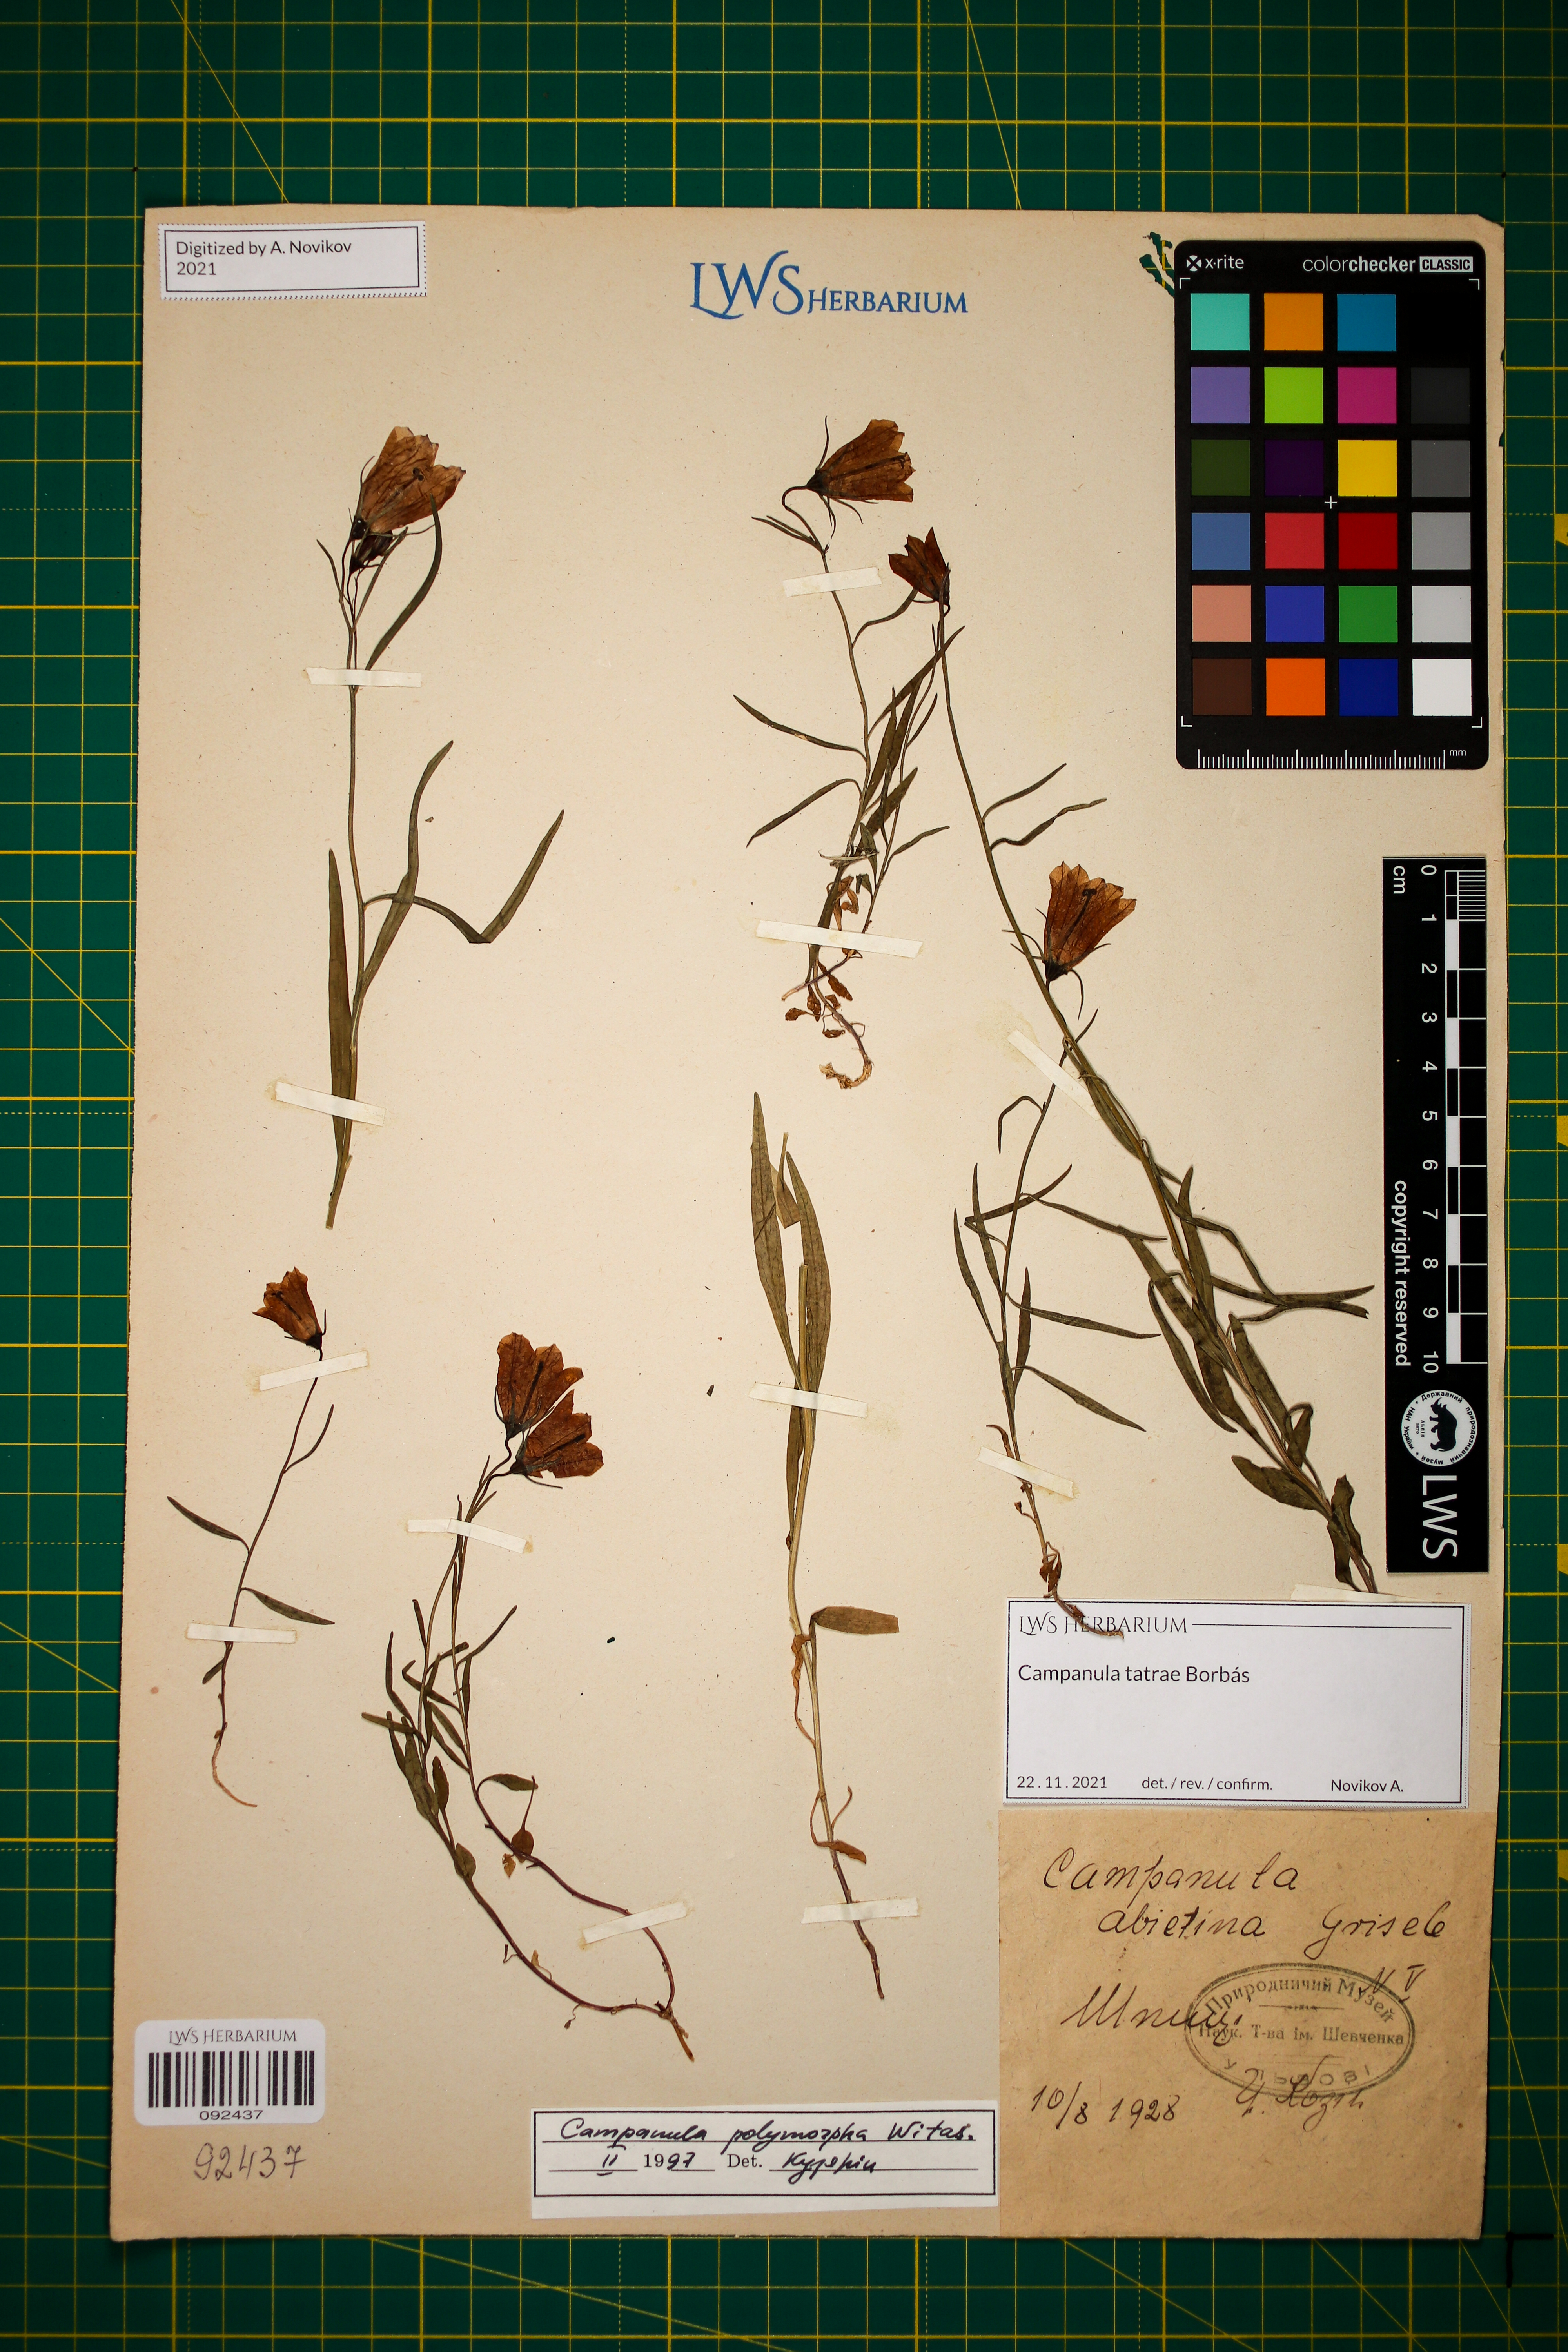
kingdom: Plantae
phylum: Tracheophyta
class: Magnoliopsida
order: Asterales
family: Campanulaceae
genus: Campanula
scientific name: Campanula tatrae
